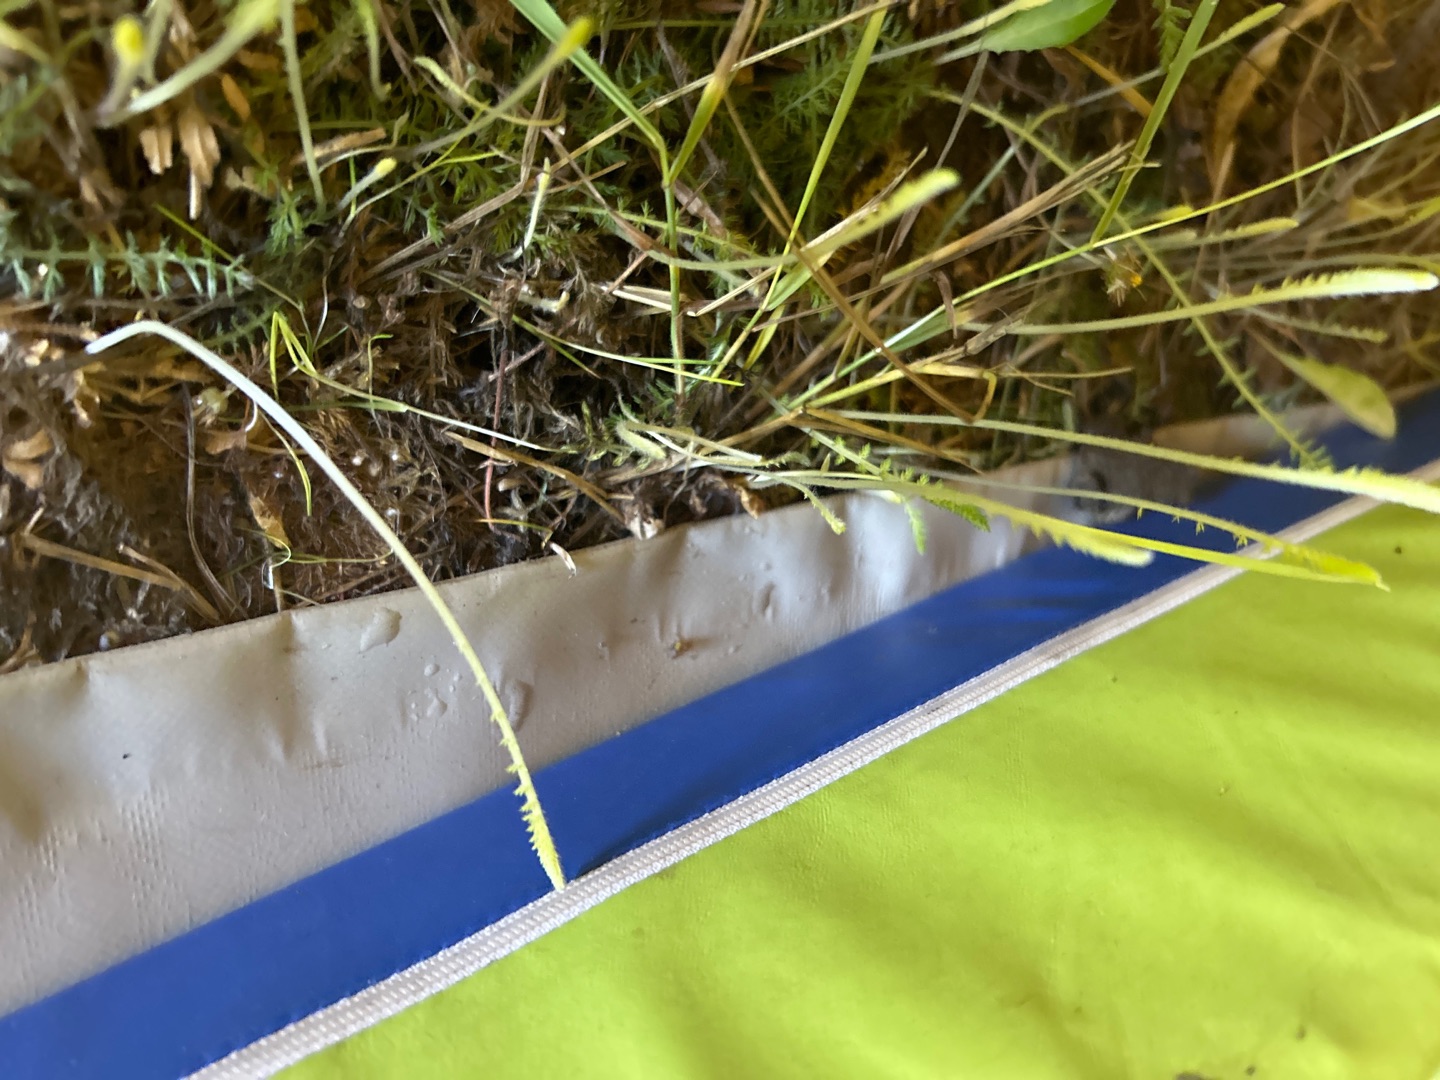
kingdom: Plantae
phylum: Tracheophyta
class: Magnoliopsida
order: Asterales
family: Asteraceae
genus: Achillea
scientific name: Achillea millefolium
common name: Almindelig røllike
